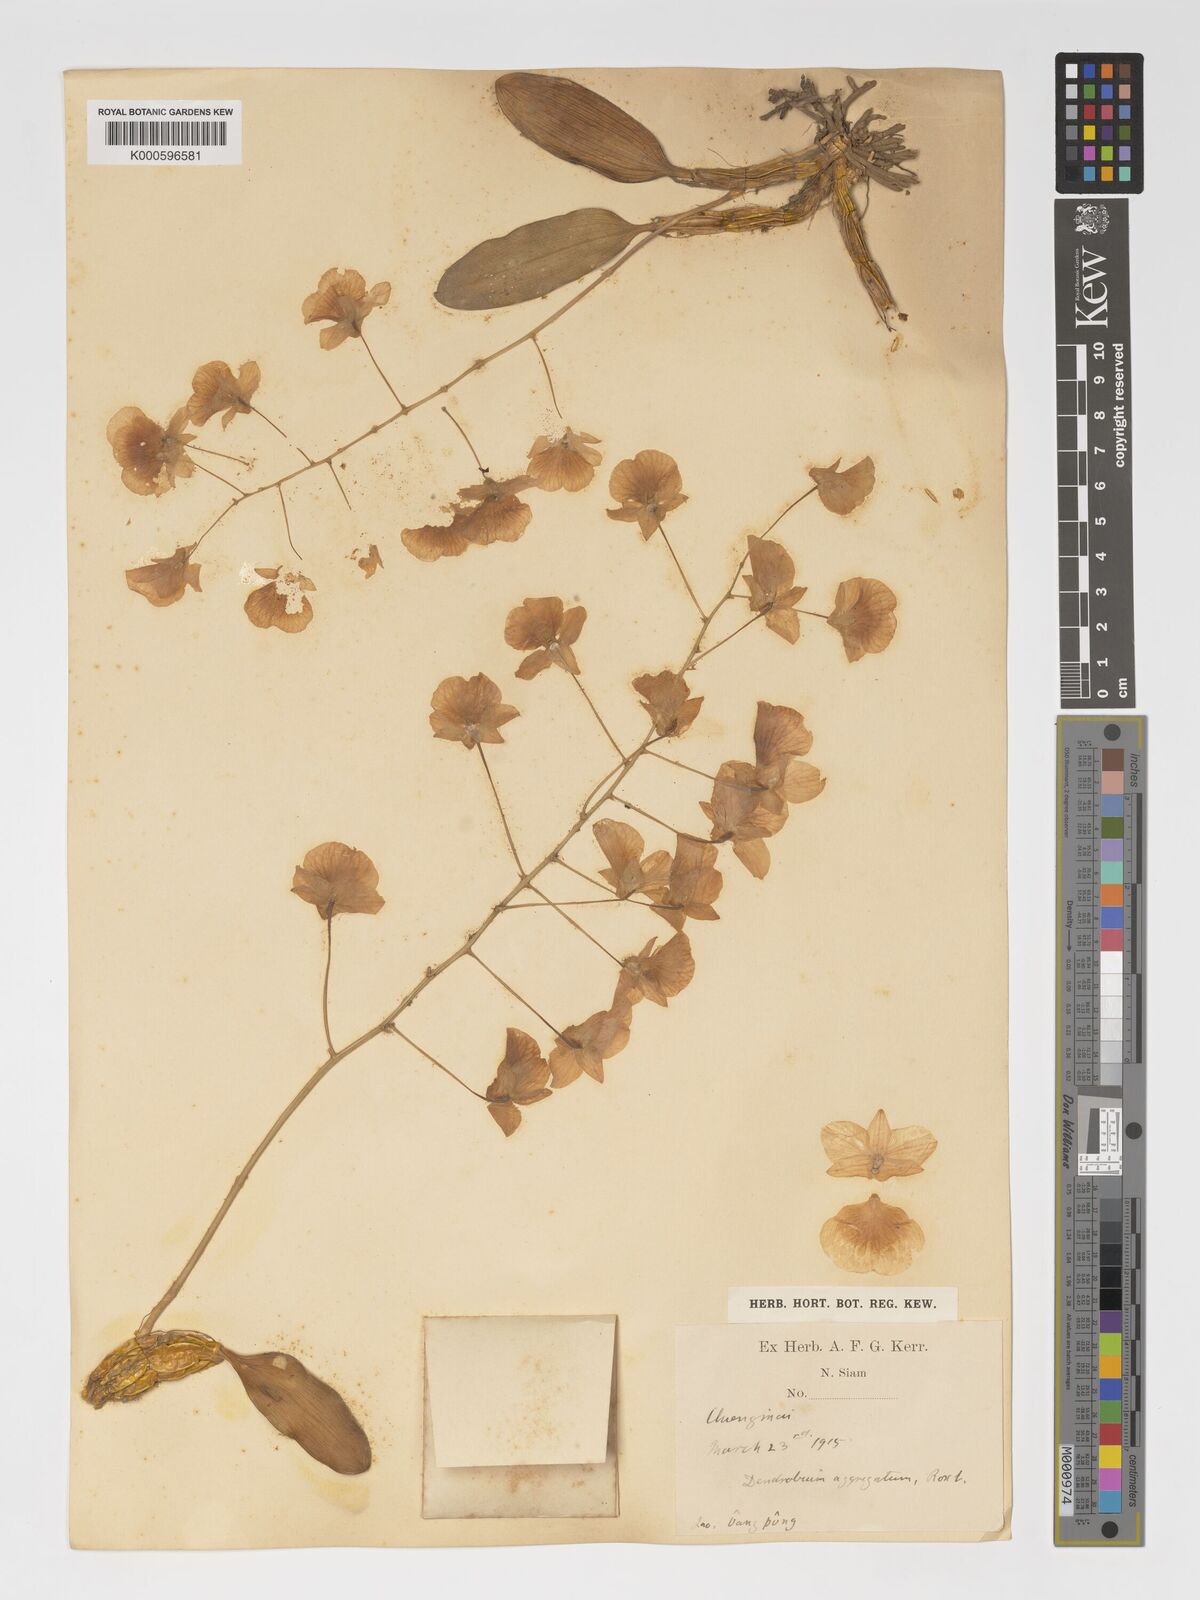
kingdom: Plantae
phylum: Tracheophyta
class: Liliopsida
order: Asparagales
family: Orchidaceae
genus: Dendrobium
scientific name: Dendrobium lindleyi
